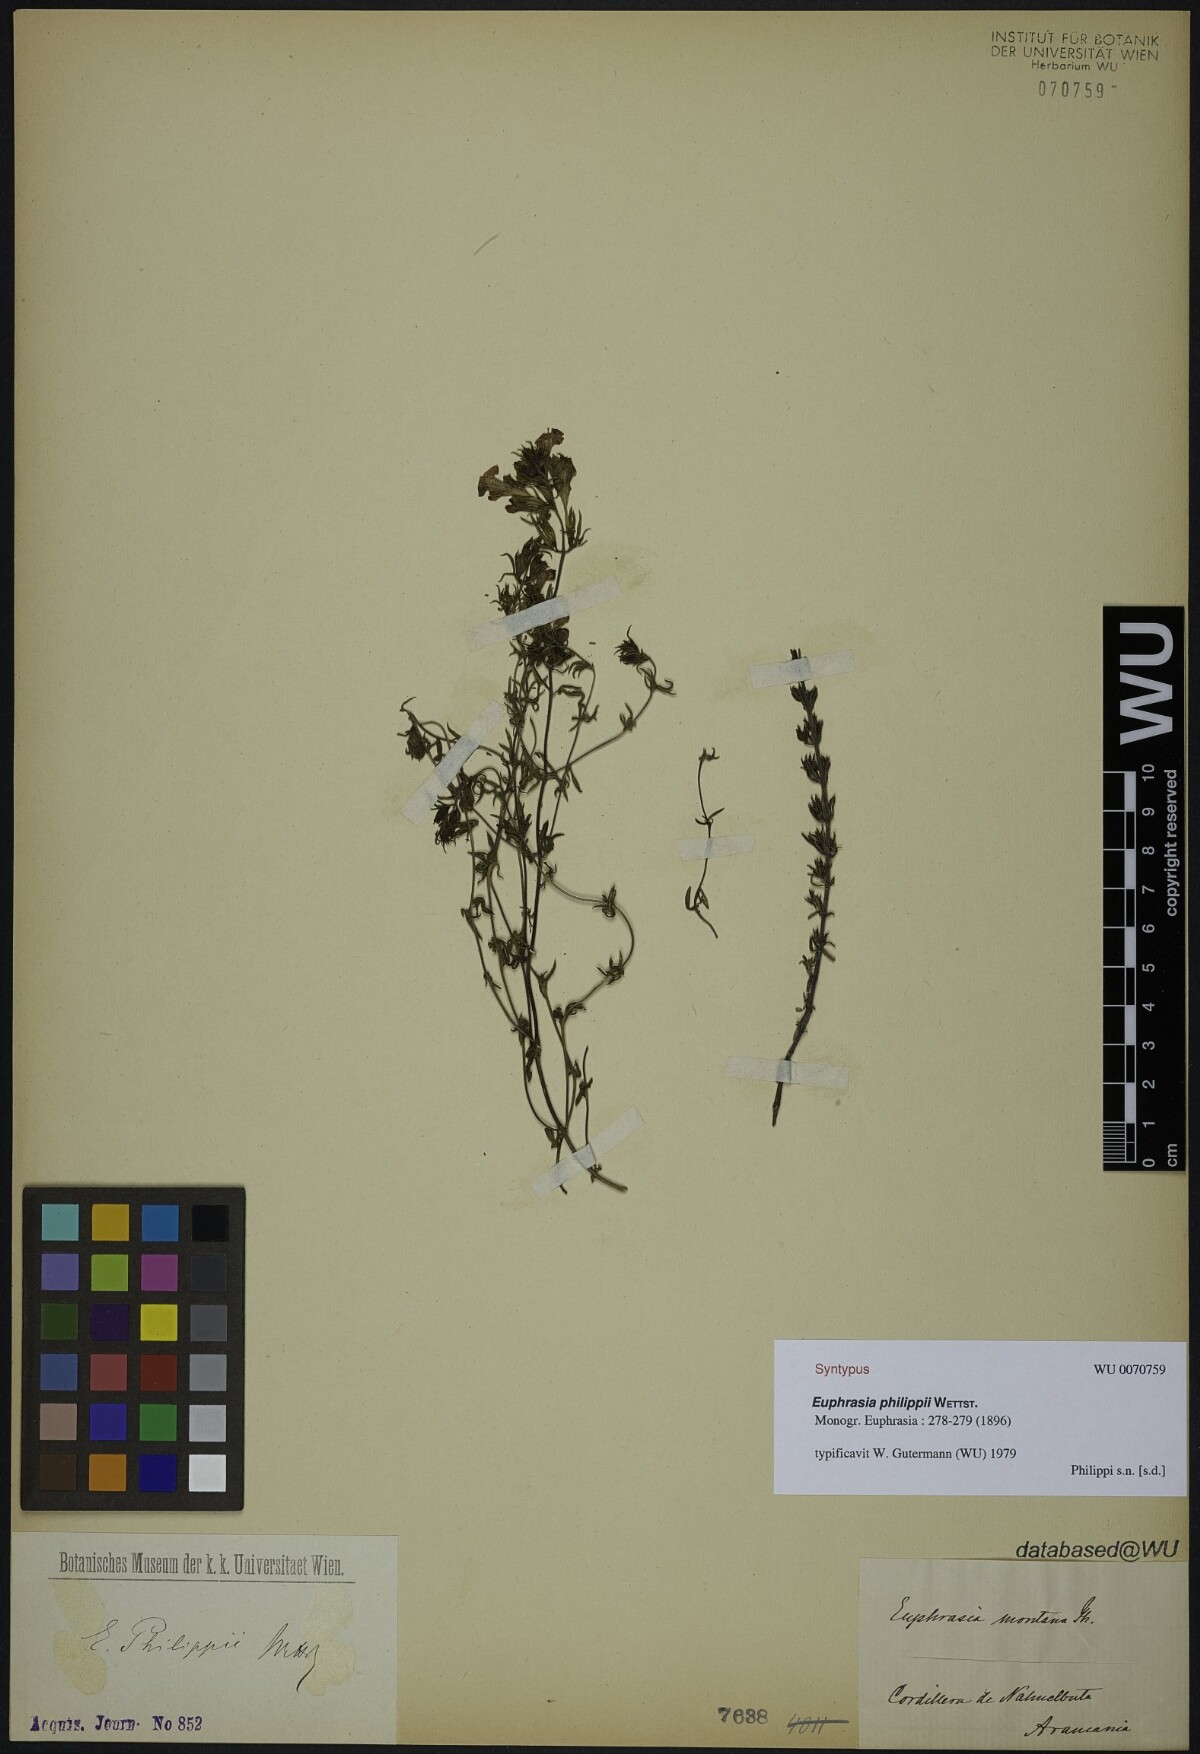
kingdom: Plantae
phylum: Tracheophyta
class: Magnoliopsida
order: Lamiales
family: Orobanchaceae
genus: Euphrasia
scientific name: Euphrasia philippii
